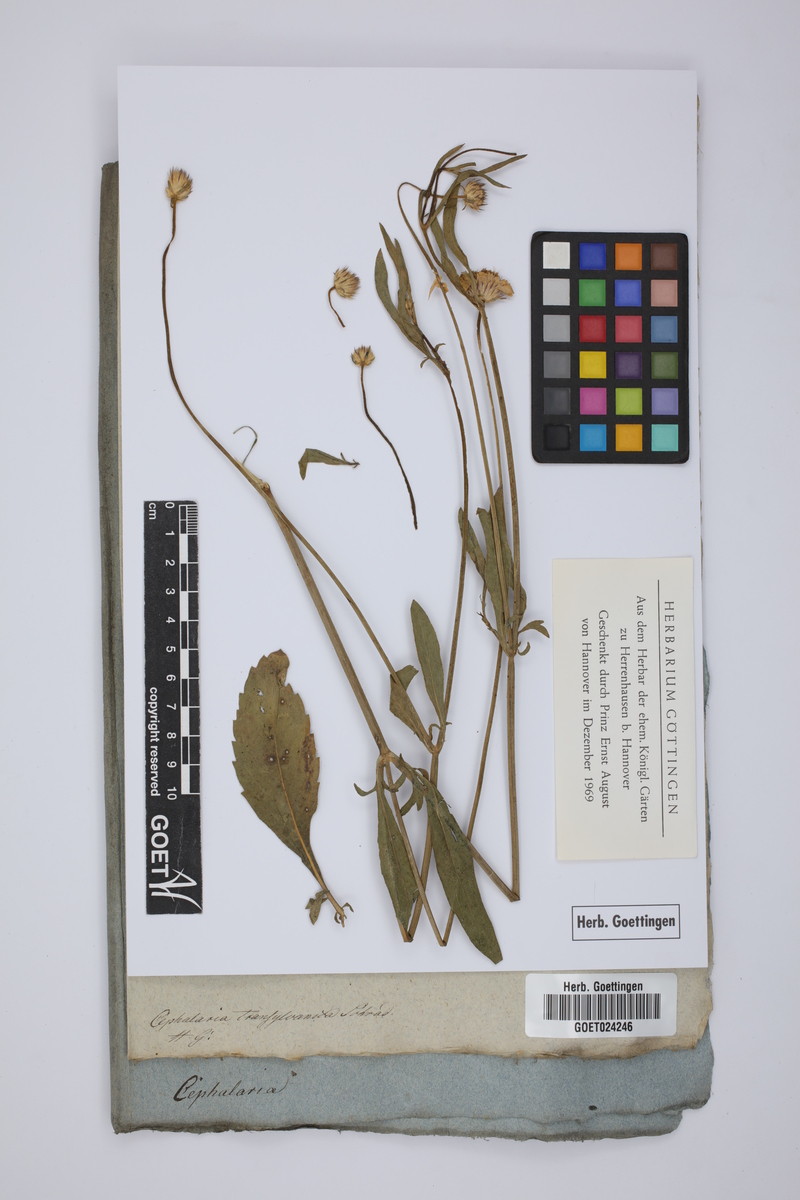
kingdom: Plantae
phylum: Tracheophyta
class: Magnoliopsida
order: Dipsacales
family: Caprifoliaceae
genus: Cephalaria
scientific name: Cephalaria transsylvanica
